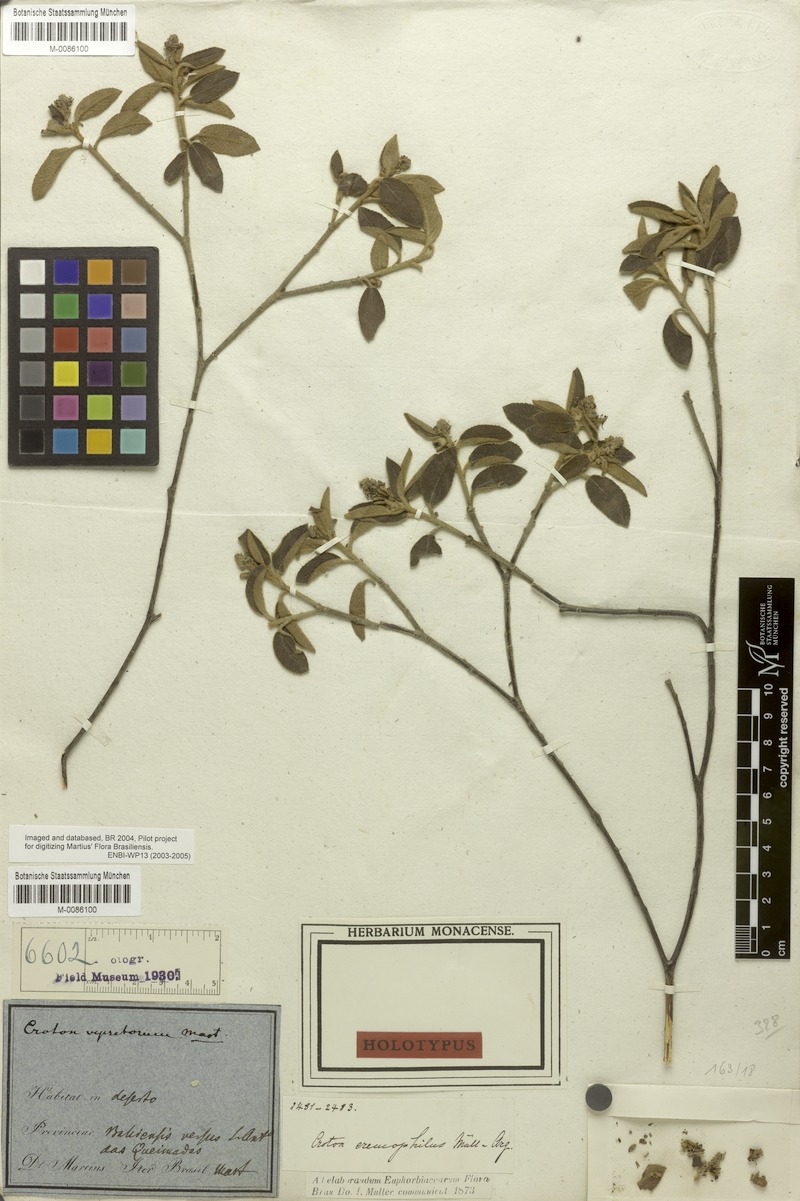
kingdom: Plantae
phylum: Tracheophyta
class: Magnoliopsida
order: Malpighiales
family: Euphorbiaceae
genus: Croton
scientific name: Croton eremophilus
